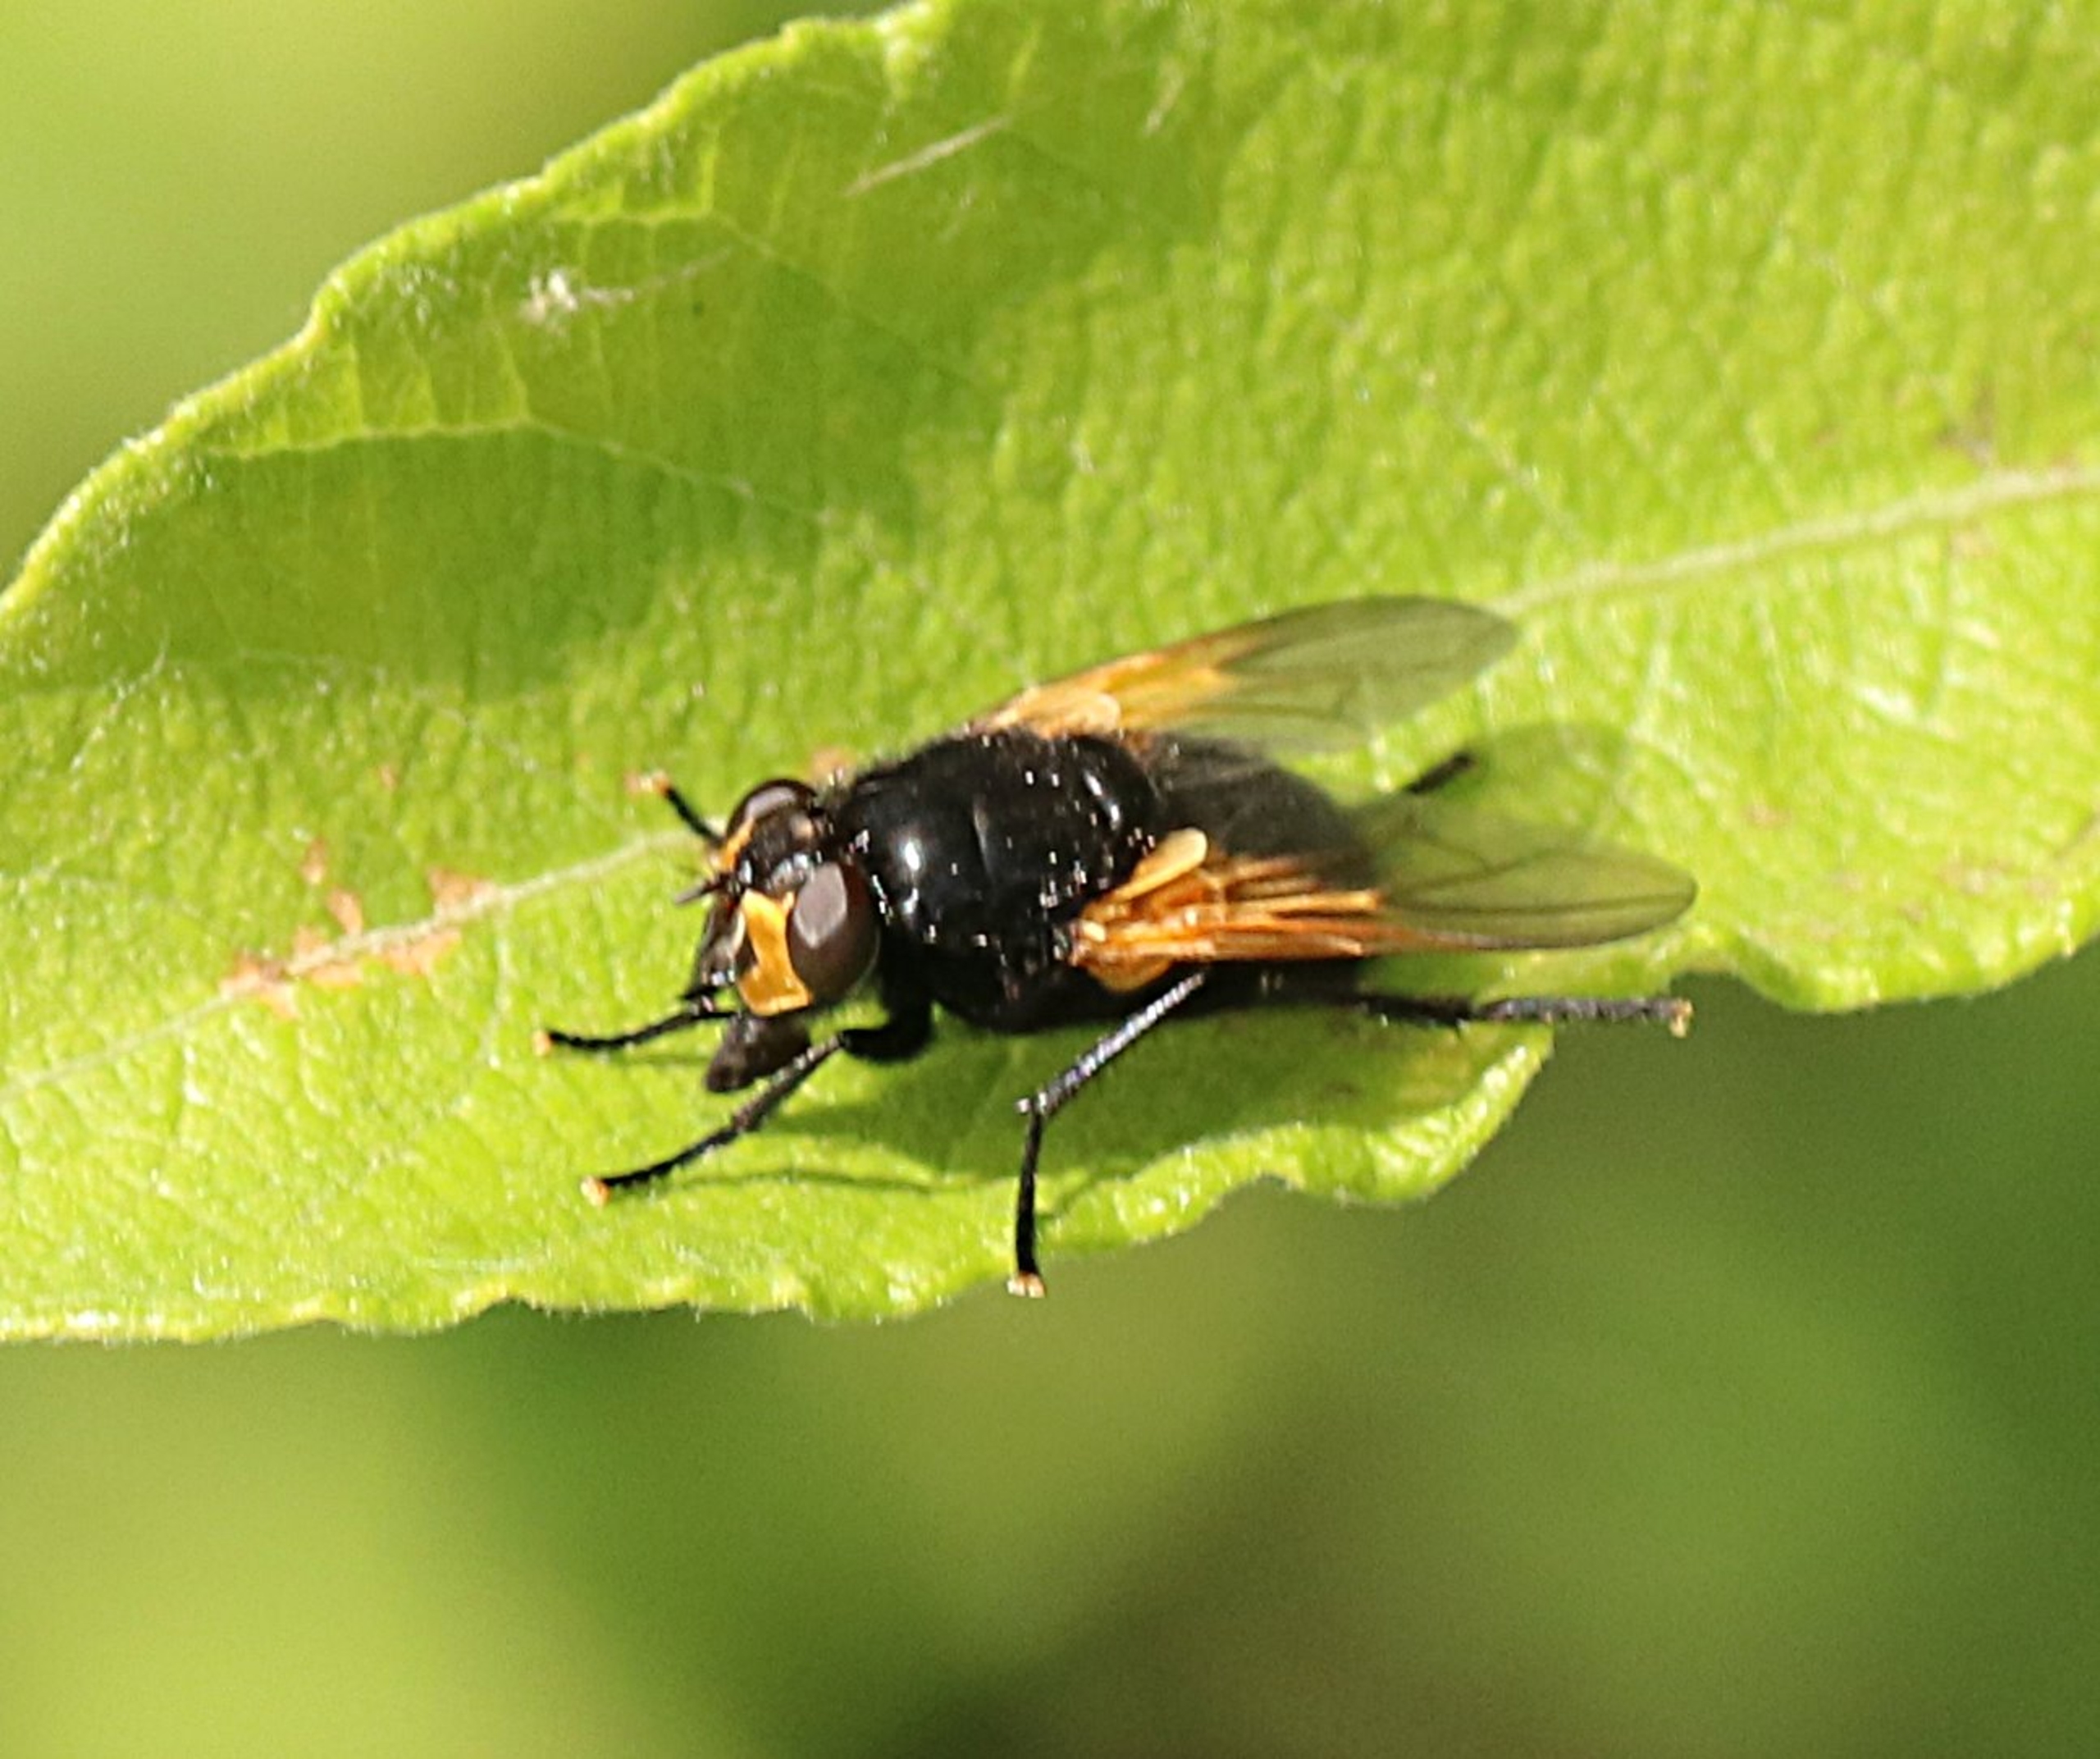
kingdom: Animalia
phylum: Arthropoda
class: Insecta
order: Diptera
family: Muscidae
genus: Mesembrina
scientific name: Mesembrina meridiana
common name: Gulvinget flue
